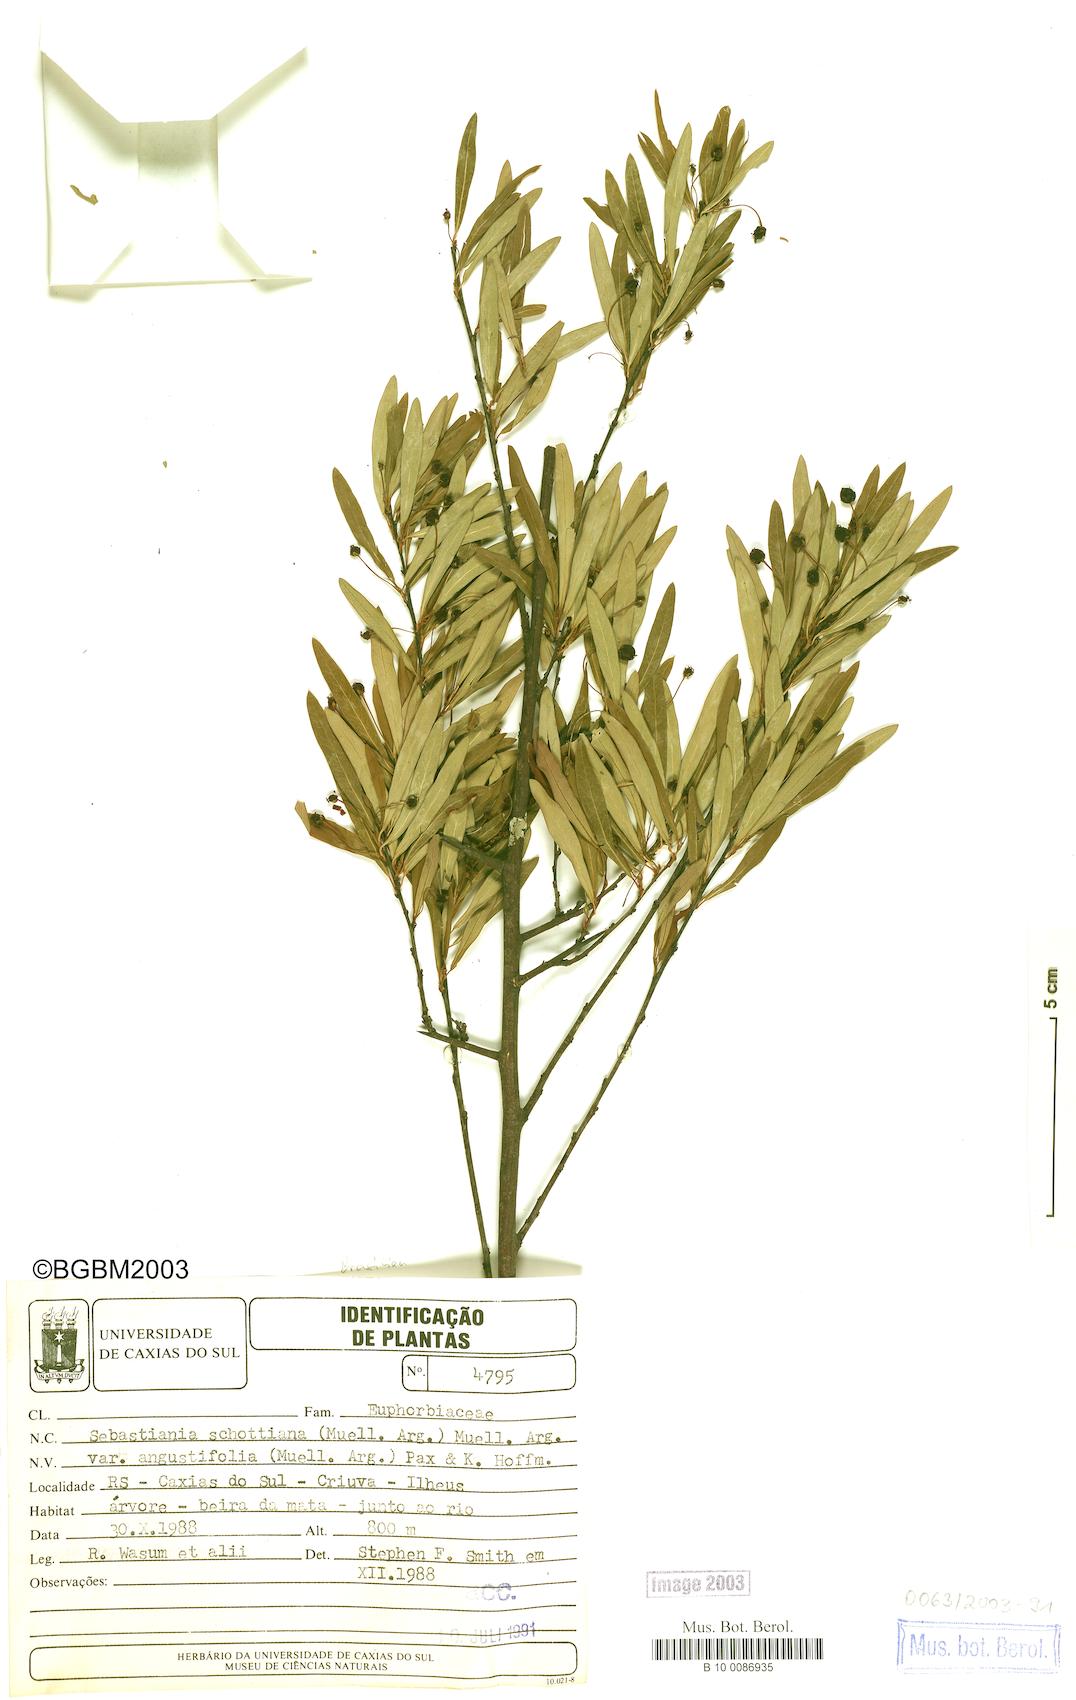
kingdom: Plantae
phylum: Tracheophyta
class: Magnoliopsida
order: Malpighiales
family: Euphorbiaceae
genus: Sebastiania
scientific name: Sebastiania schottiana
